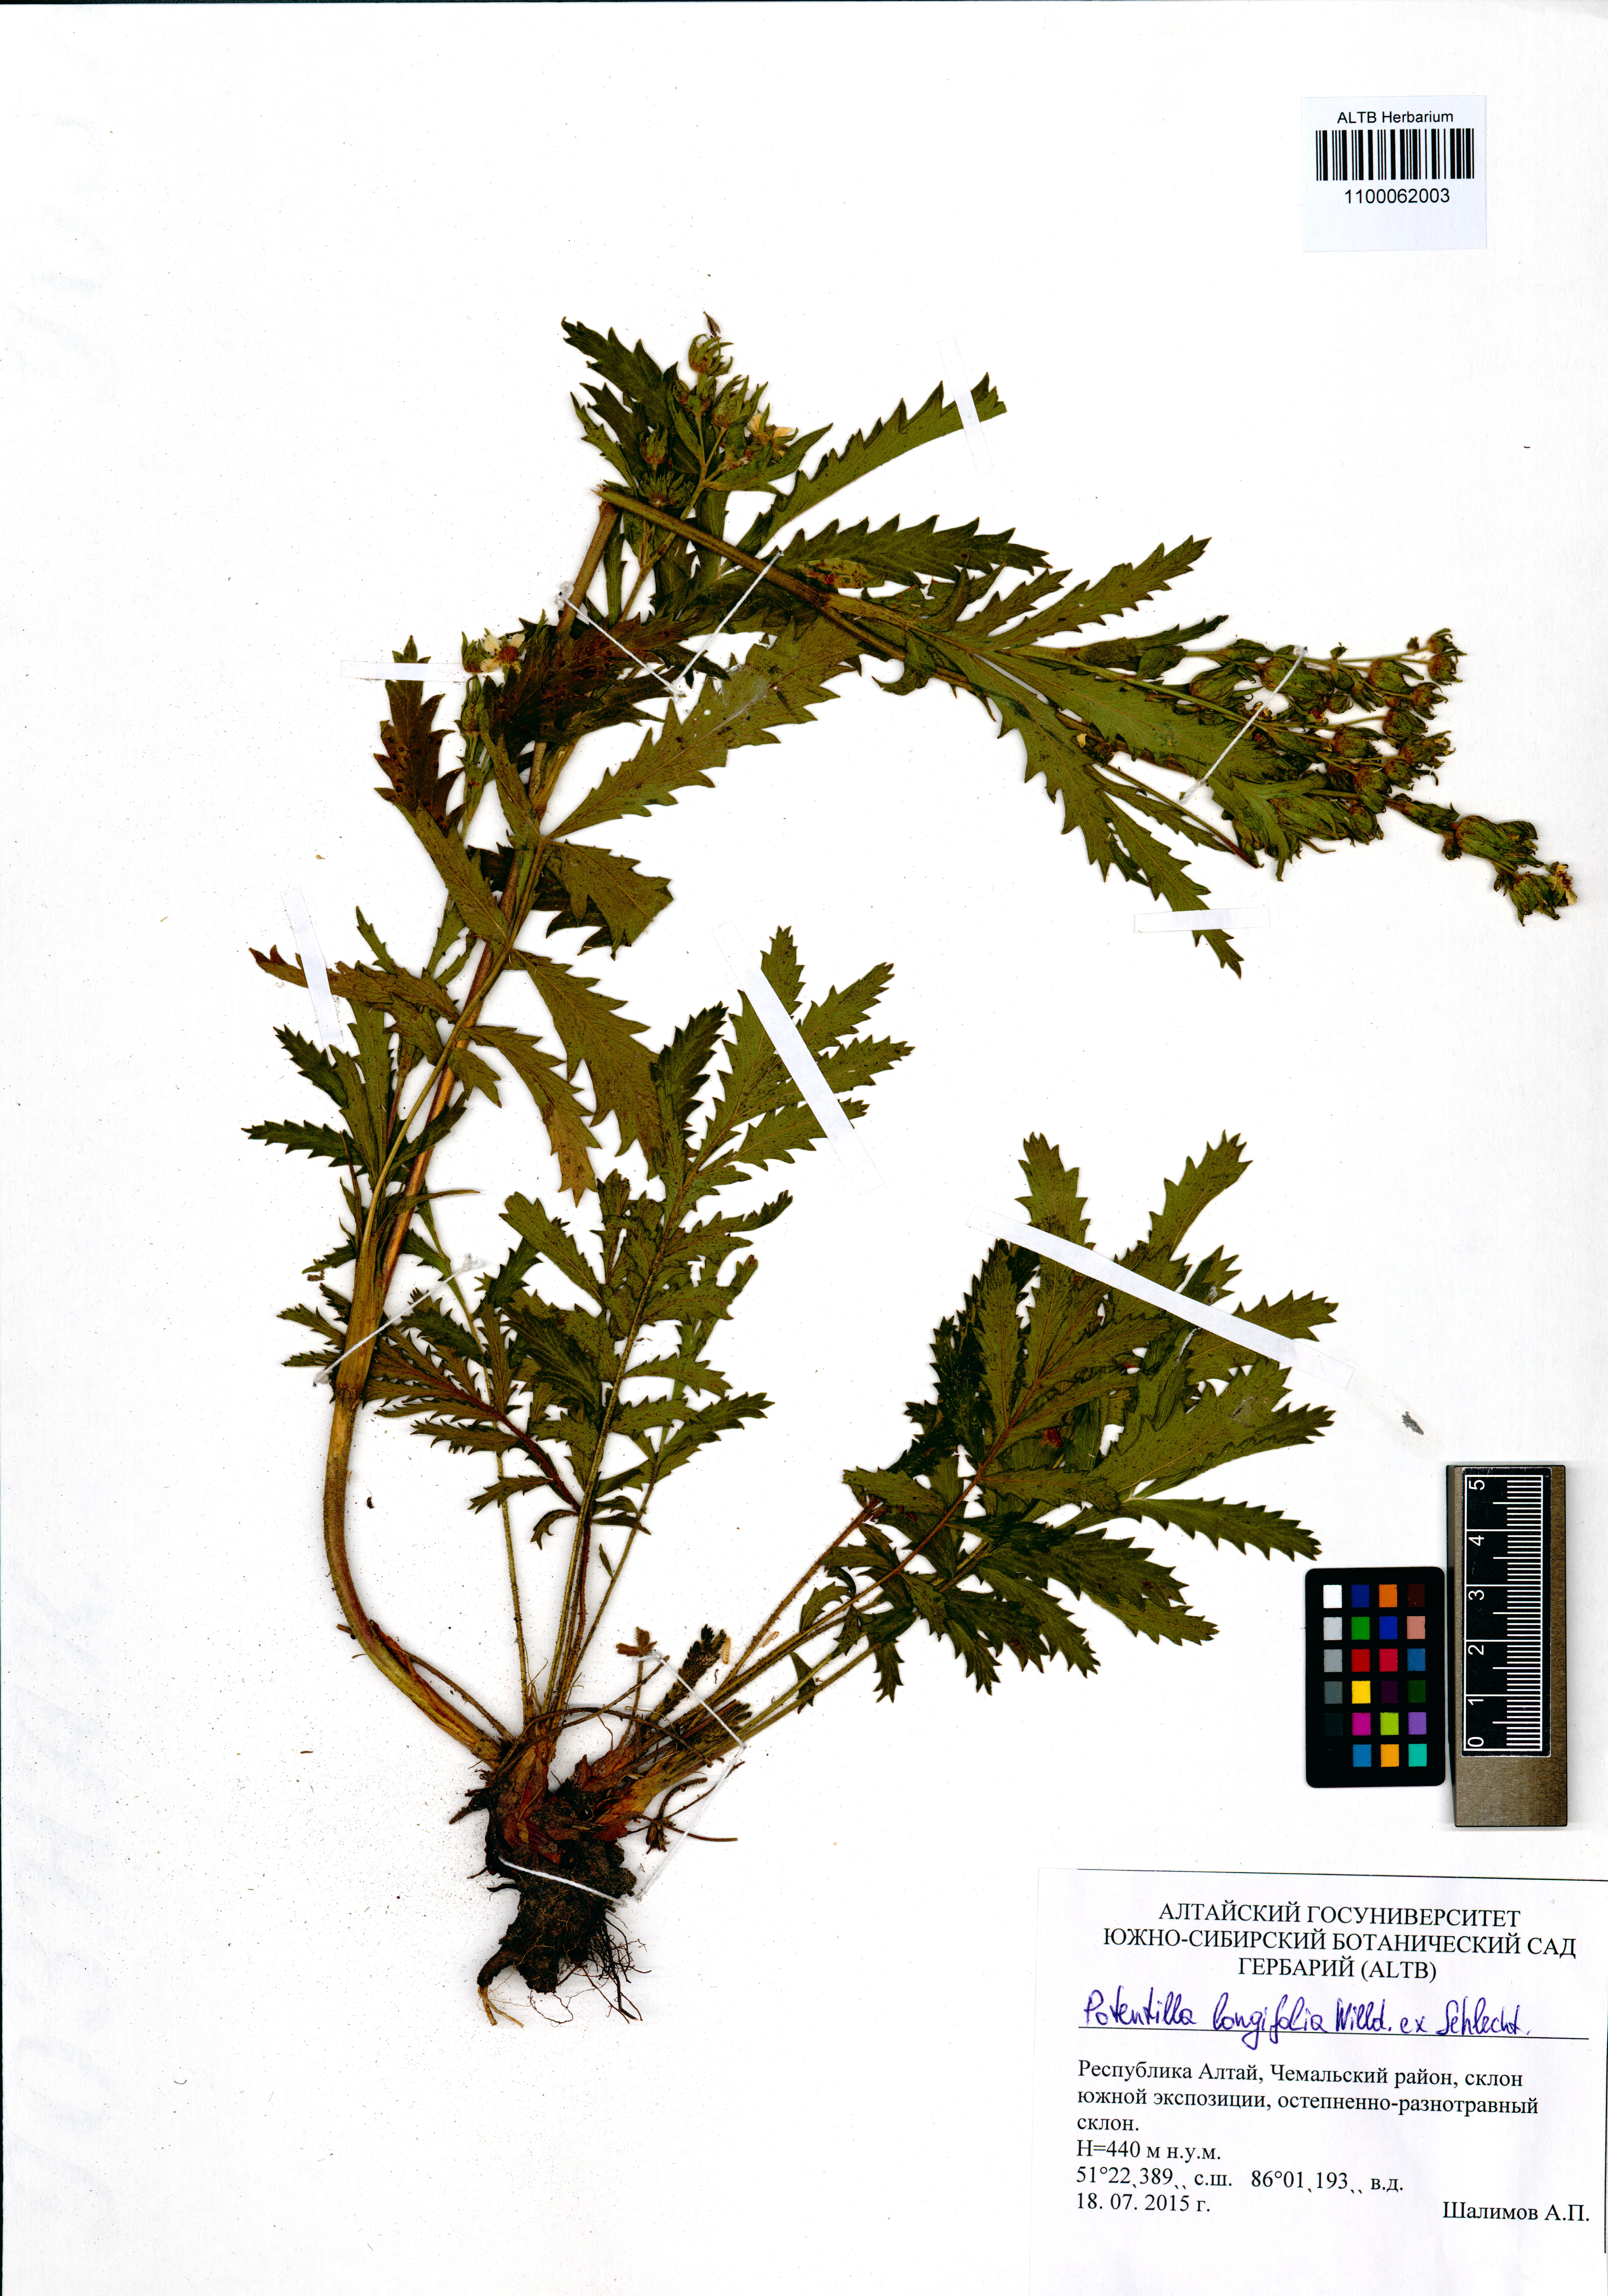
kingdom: Plantae
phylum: Tracheophyta
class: Magnoliopsida
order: Rosales
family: Rosaceae
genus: Potentilla
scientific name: Potentilla longifolia
